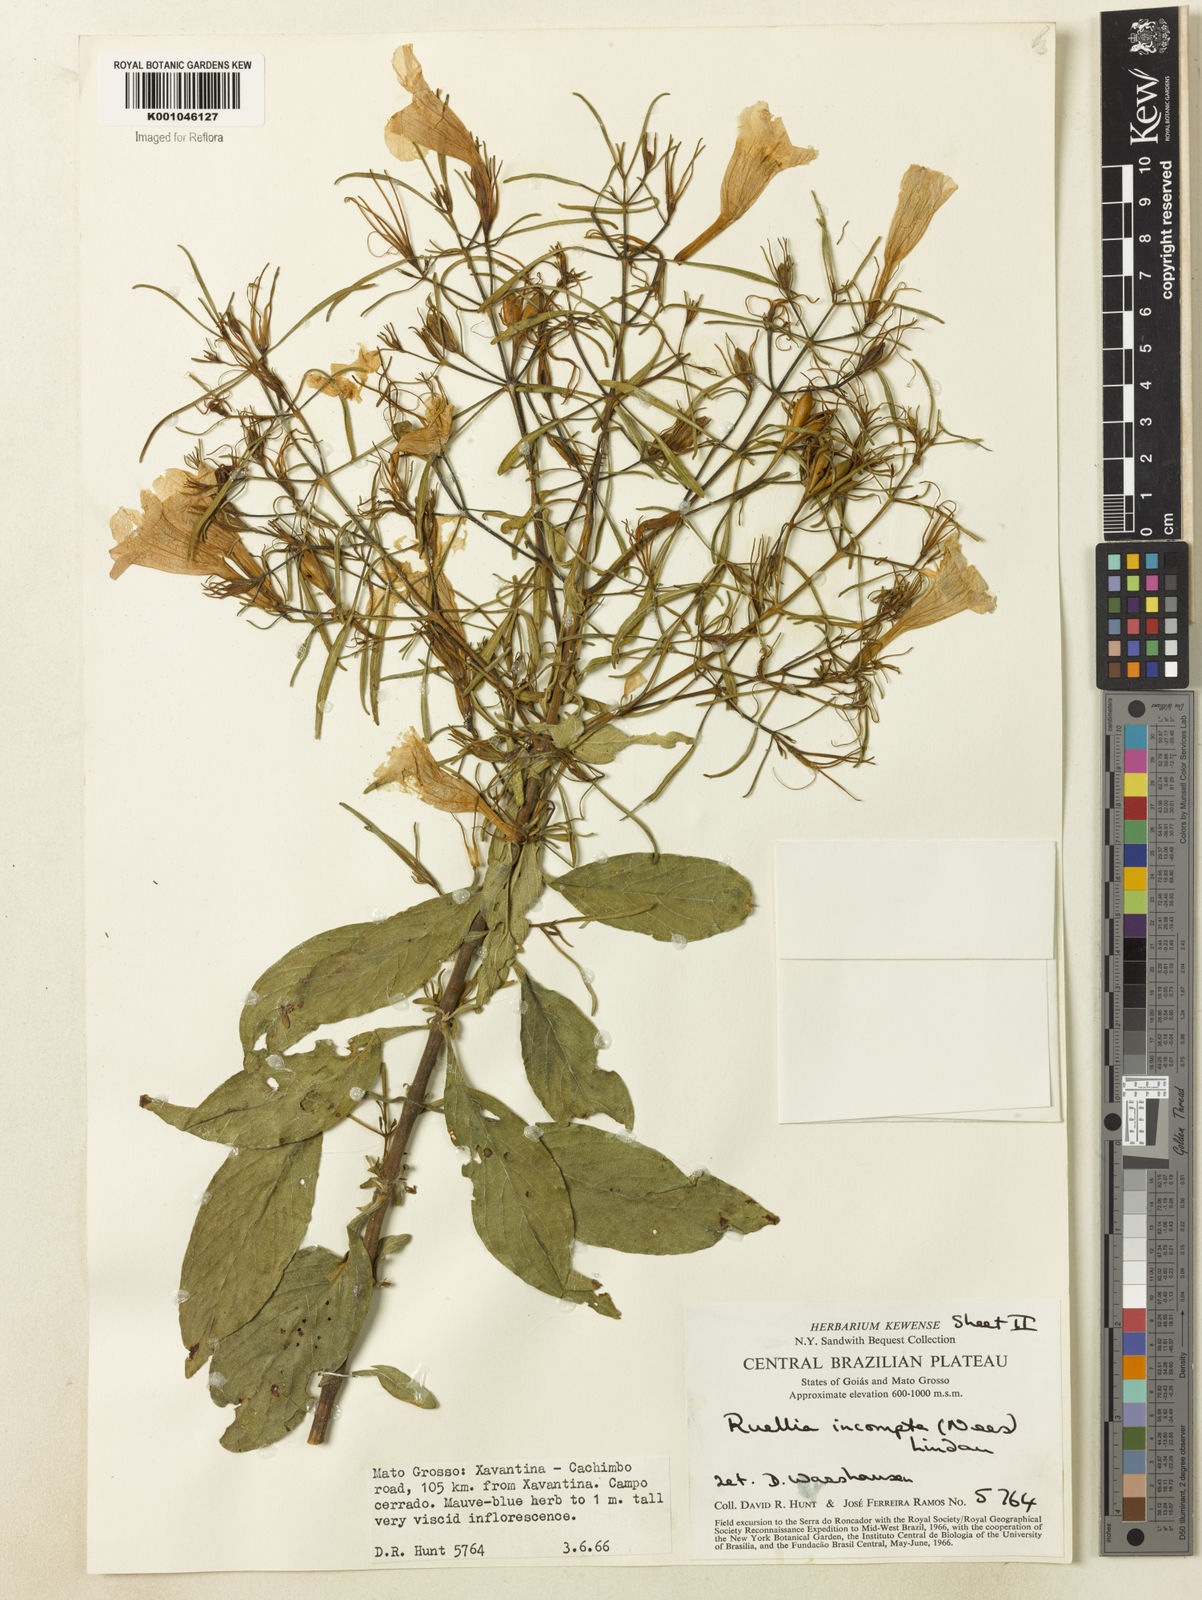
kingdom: Plantae
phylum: Tracheophyta
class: Magnoliopsida
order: Lamiales
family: Acanthaceae
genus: Ruellia
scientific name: Ruellia
